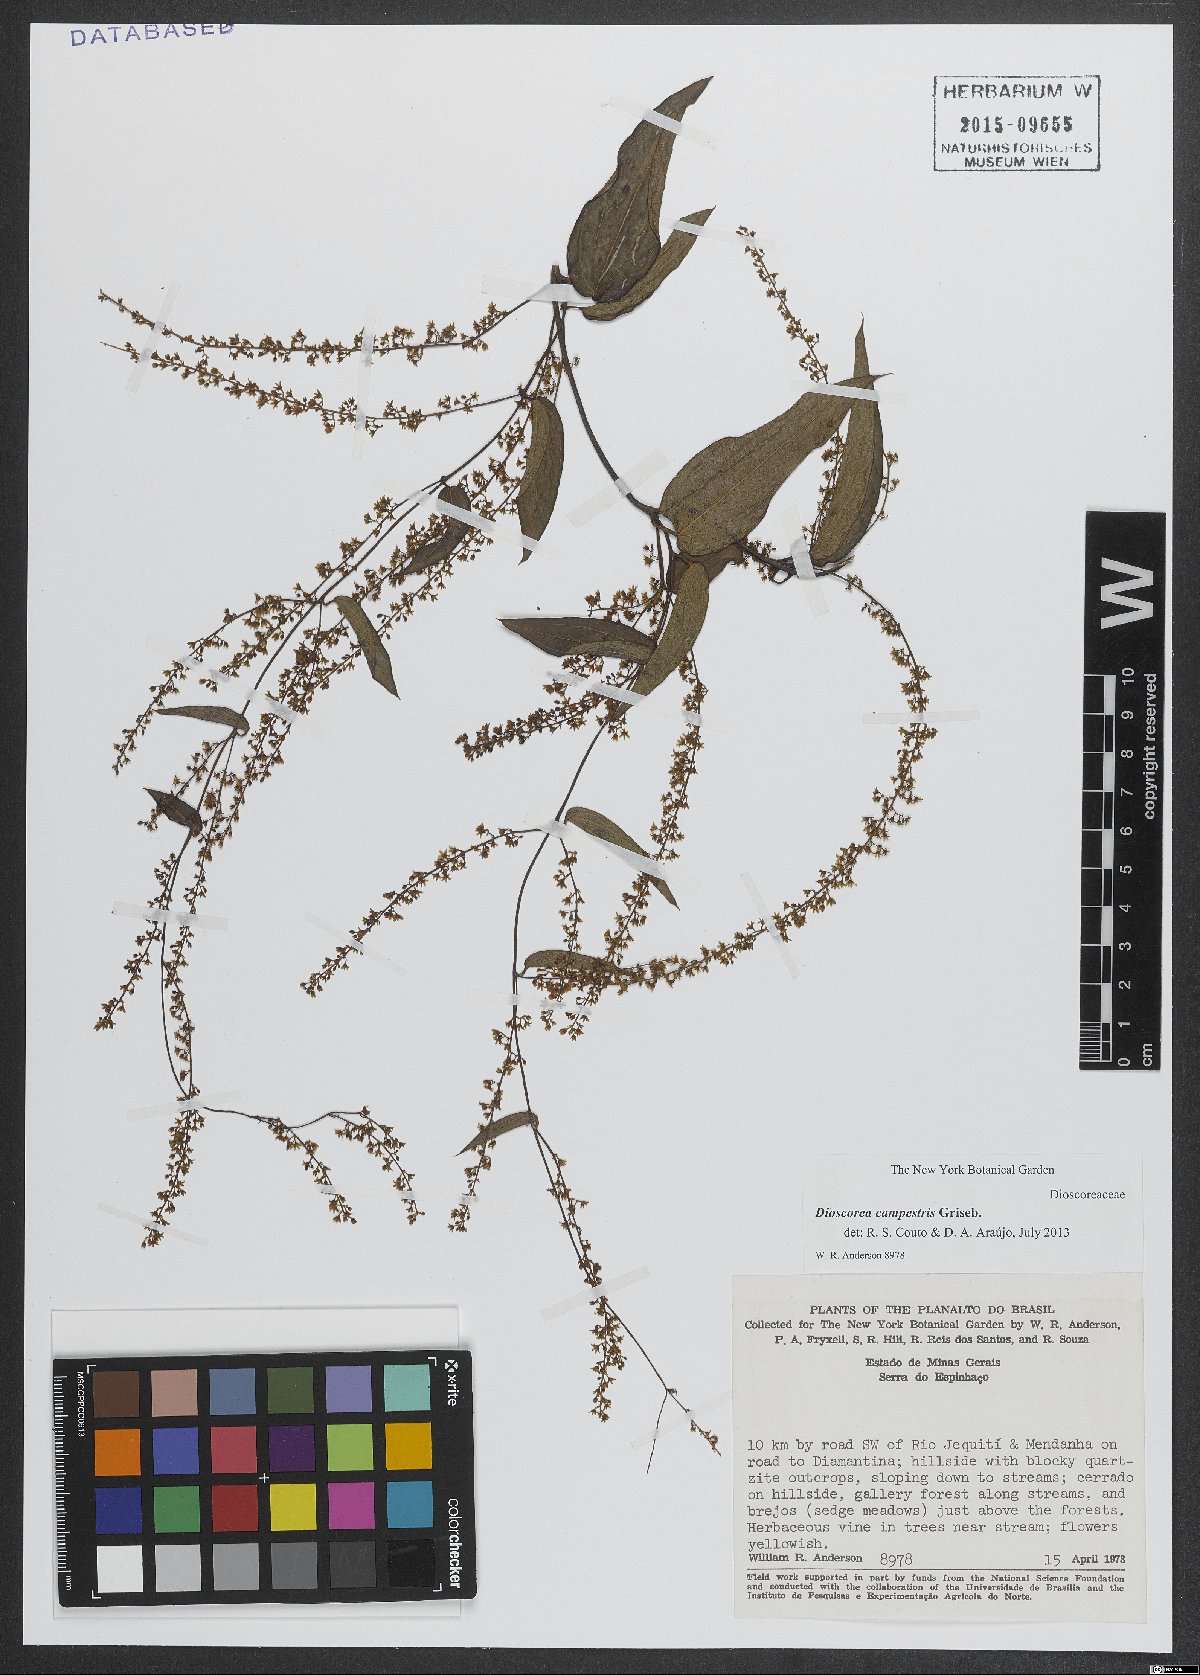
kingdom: Plantae
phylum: Tracheophyta
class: Liliopsida
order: Dioscoreales
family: Dioscoreaceae
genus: Dioscorea
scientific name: Dioscorea campestris
